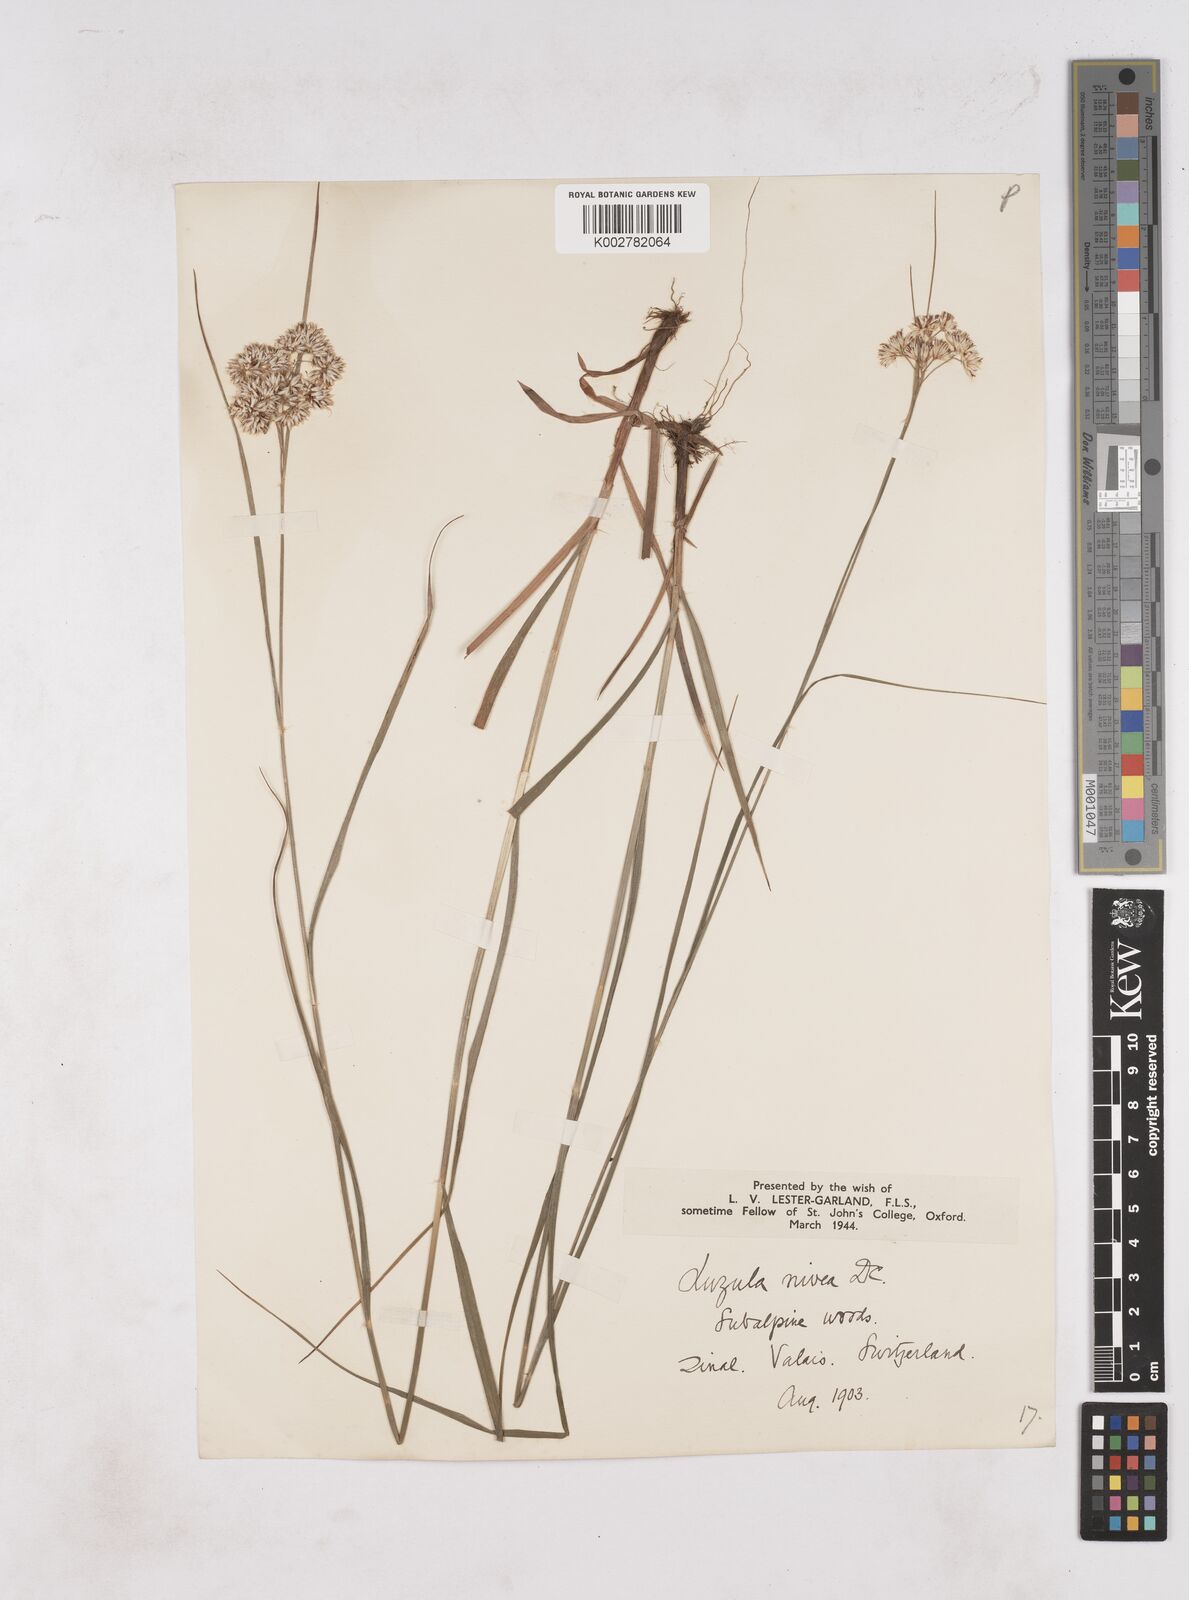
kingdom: Plantae
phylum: Tracheophyta
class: Liliopsida
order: Poales
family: Juncaceae
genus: Luzula
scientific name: Luzula nivea
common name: Snow-white wood-rush
